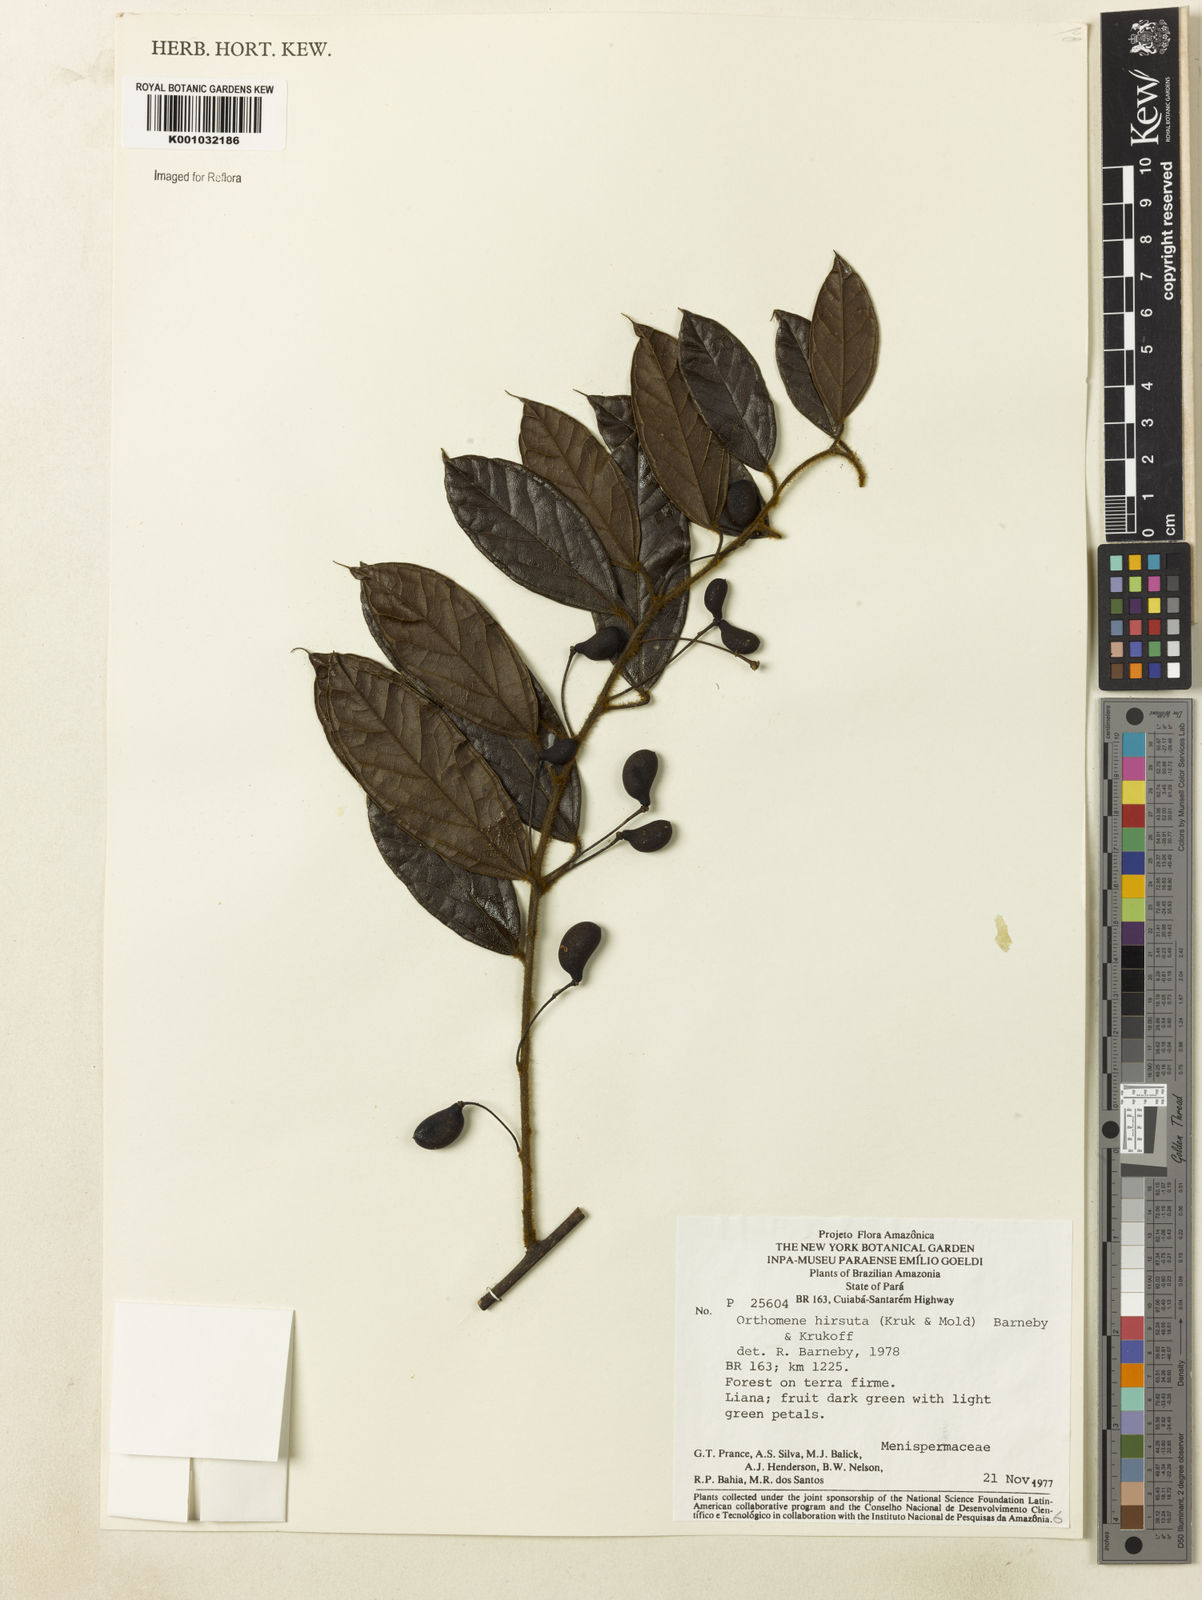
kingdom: Plantae
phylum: Tracheophyta
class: Magnoliopsida
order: Ranunculales
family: Menispermaceae
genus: Orthomene
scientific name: Orthomene hirsuta
